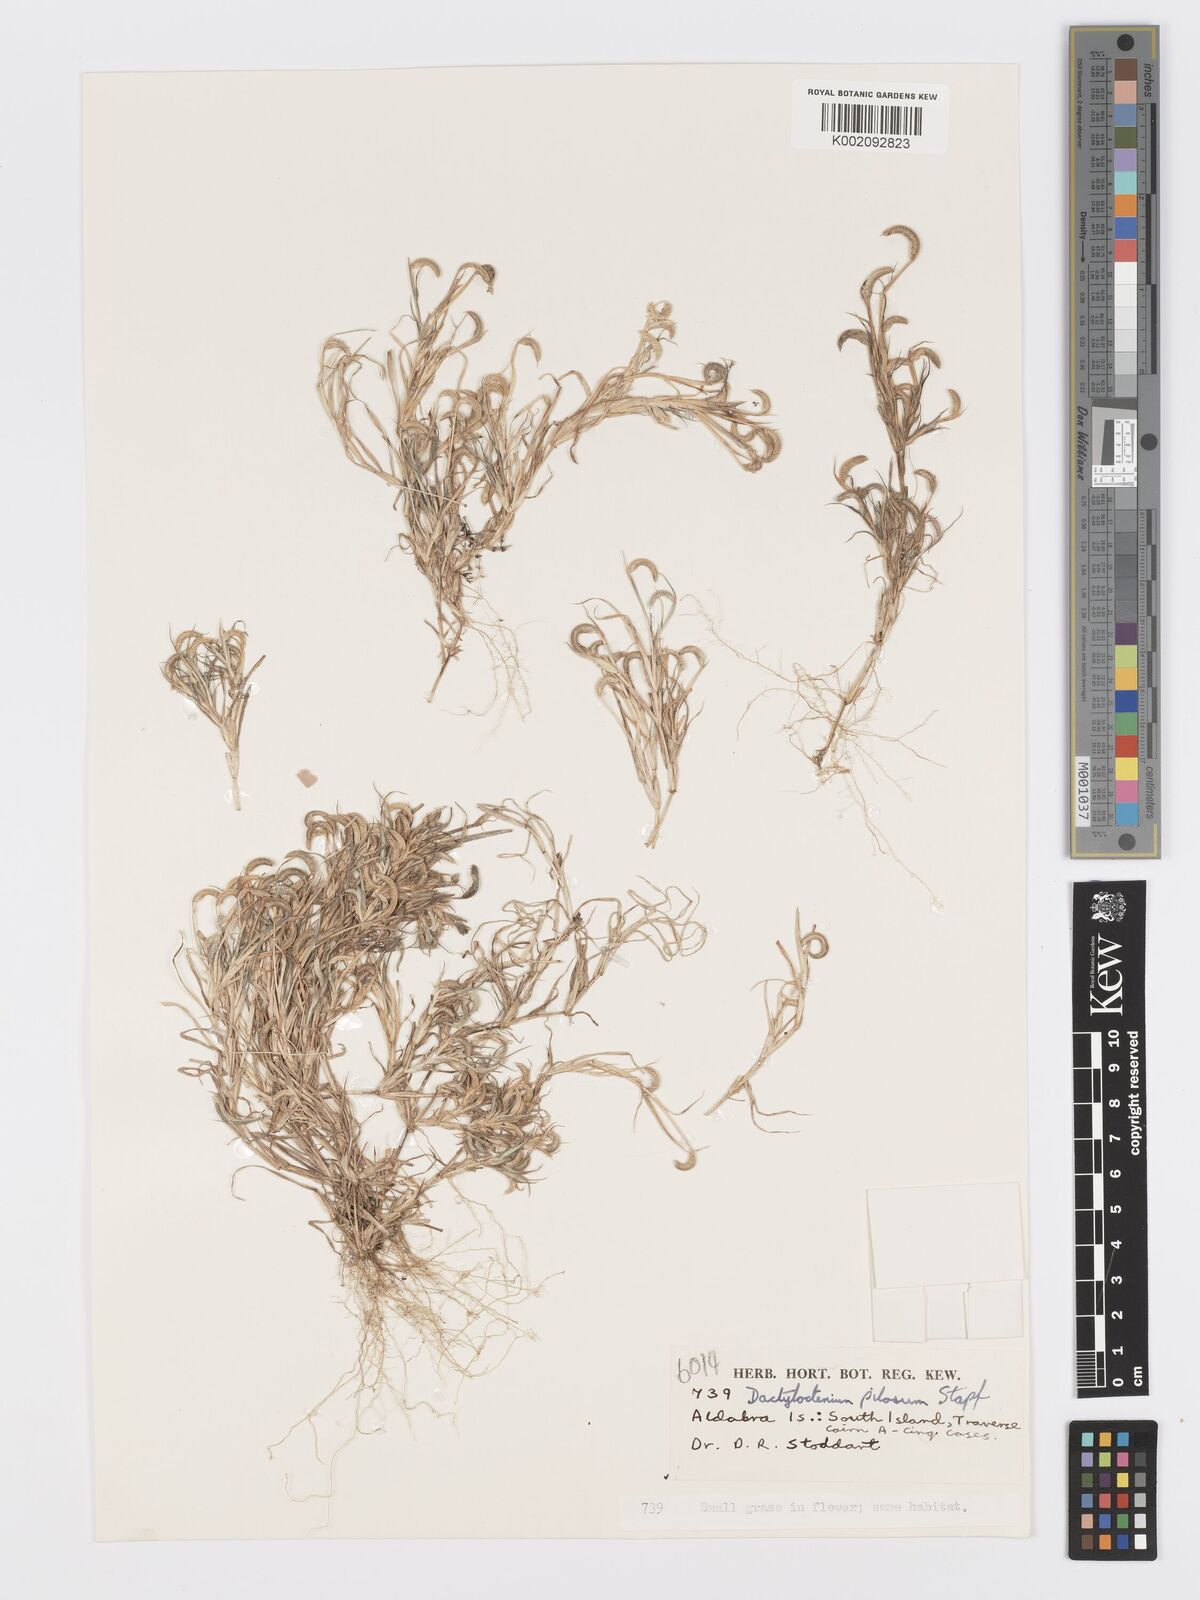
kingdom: Plantae
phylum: Tracheophyta
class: Liliopsida
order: Poales
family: Poaceae
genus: Dactyloctenium
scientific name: Dactyloctenium pilosum
